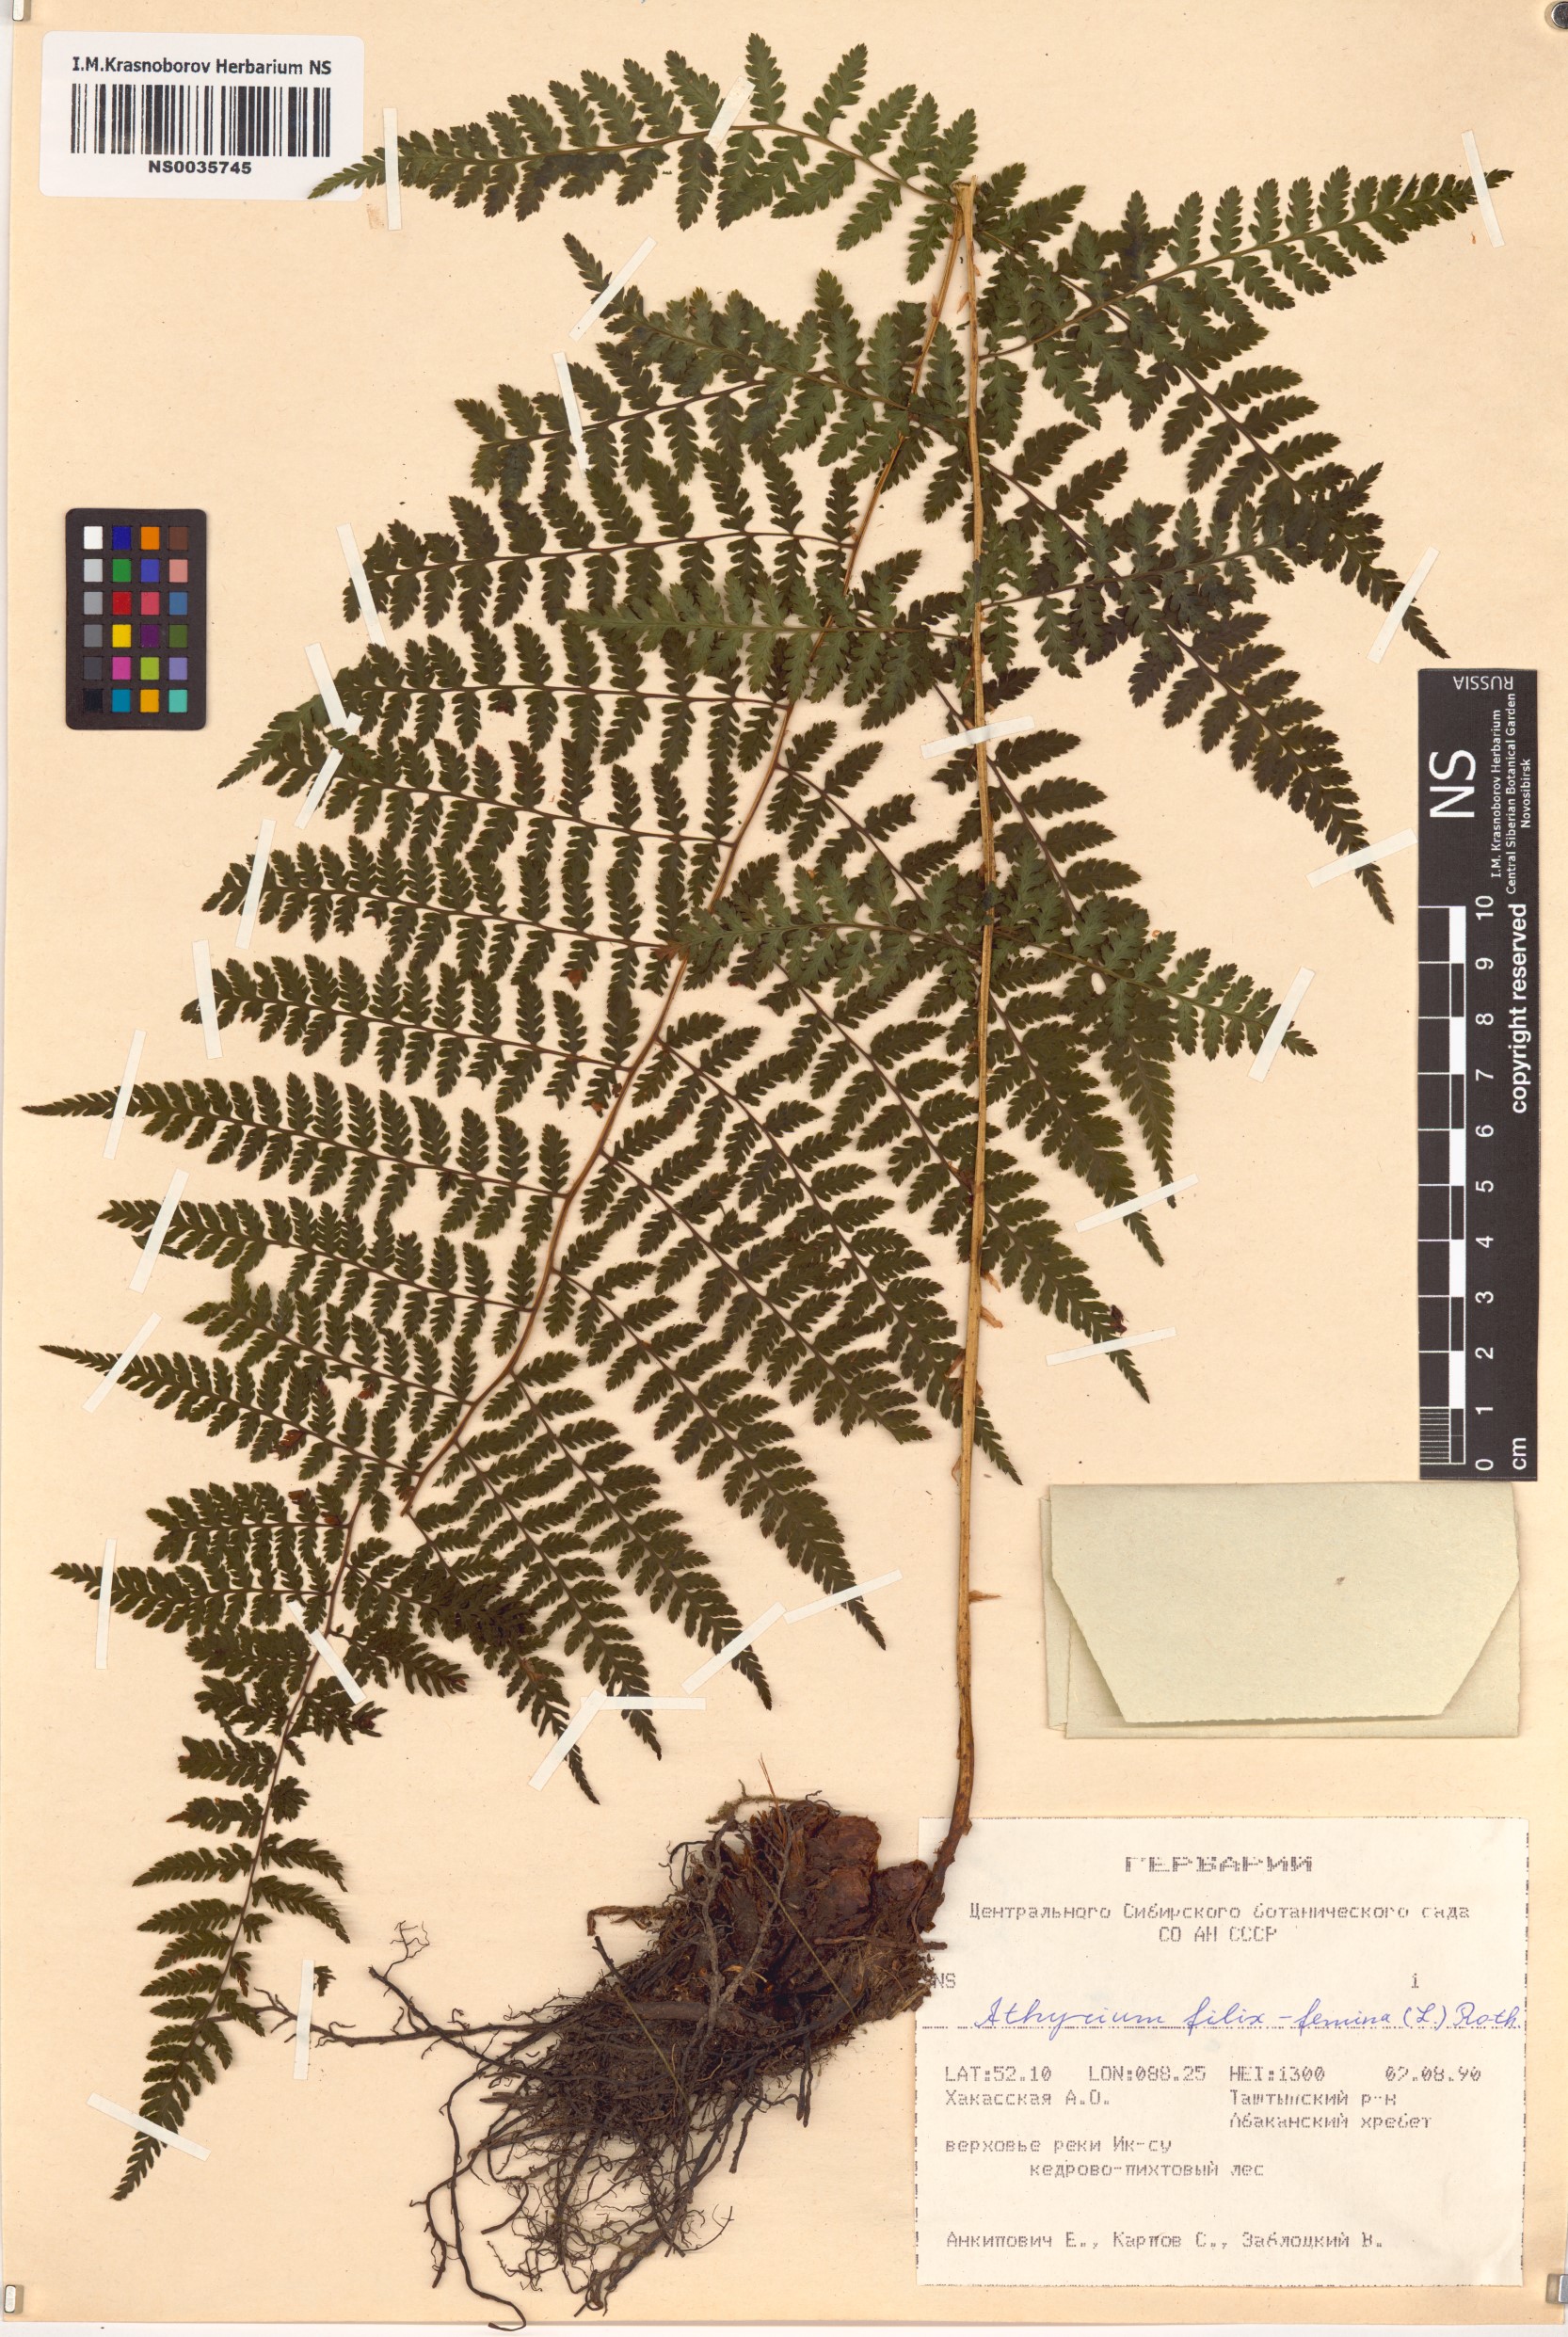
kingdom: Plantae
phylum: Tracheophyta
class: Polypodiopsida
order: Polypodiales
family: Athyriaceae
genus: Athyrium
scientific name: Athyrium filix-femina
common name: Lady fern
